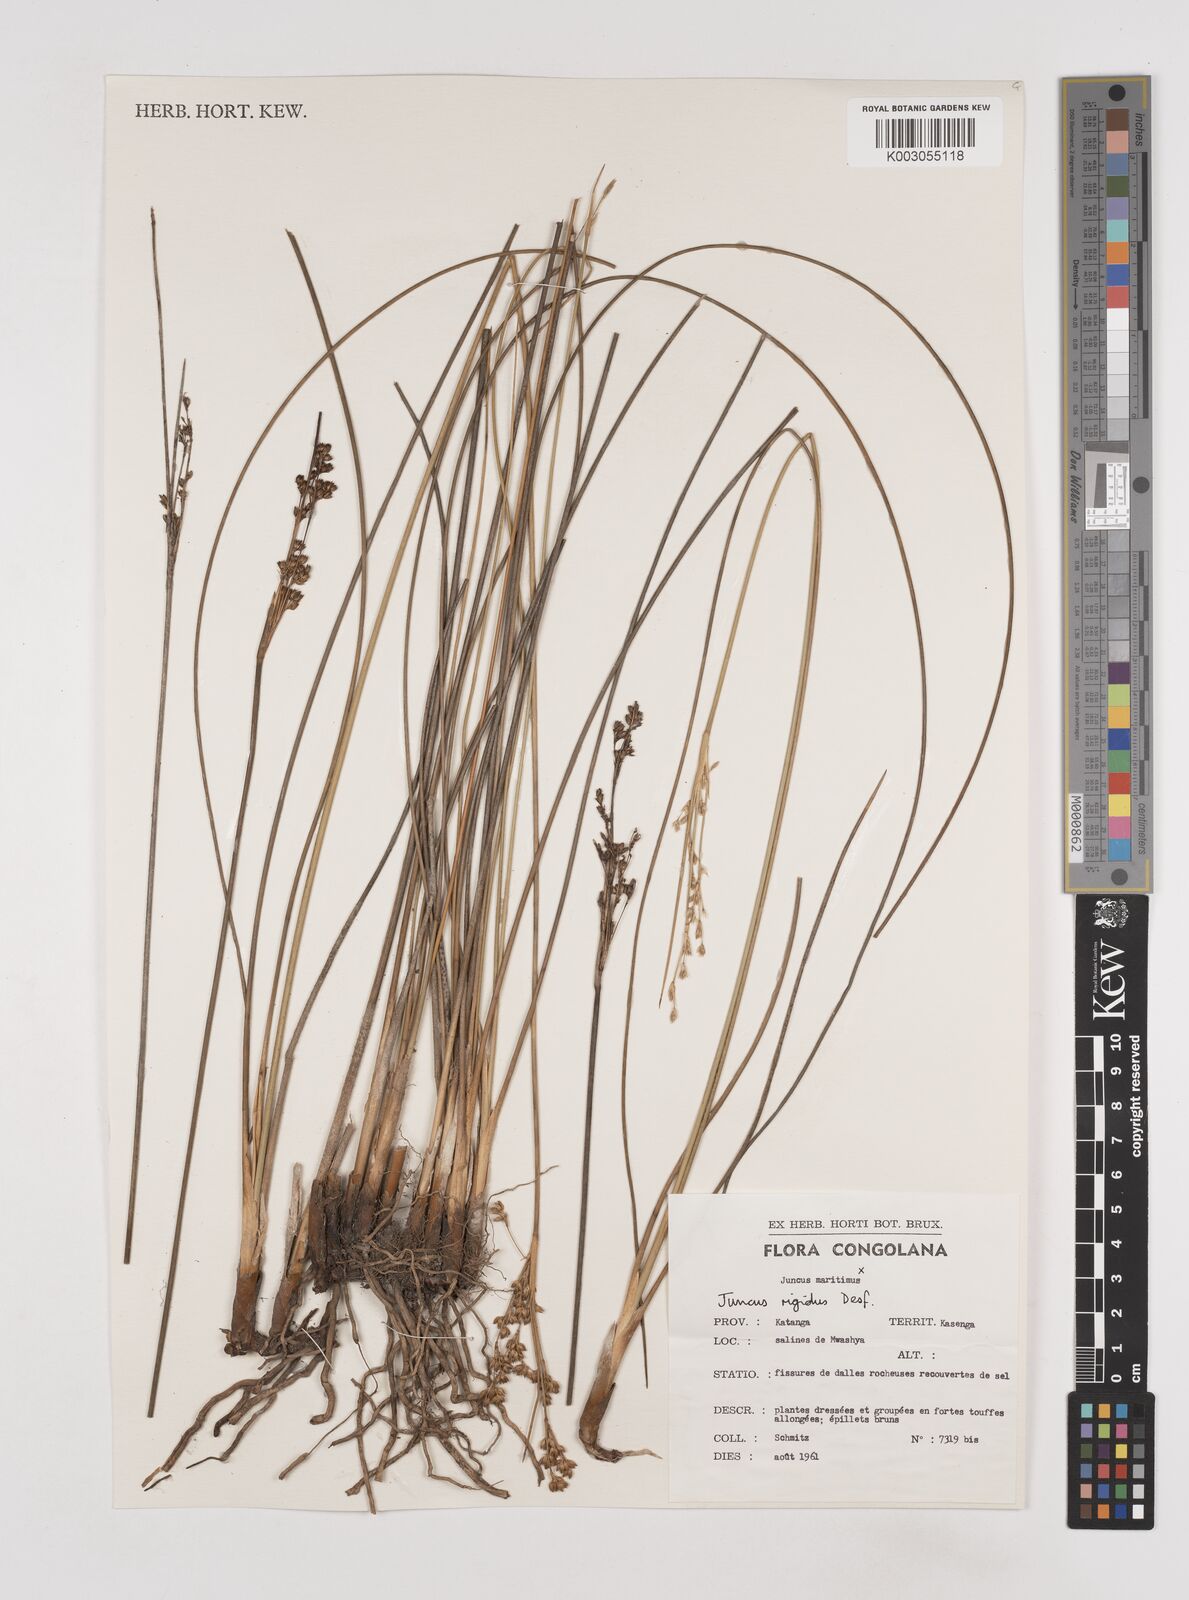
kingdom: Plantae
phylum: Tracheophyta
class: Liliopsida
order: Poales
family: Juncaceae
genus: Juncus
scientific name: Juncus rigidus
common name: Hard sea rush
